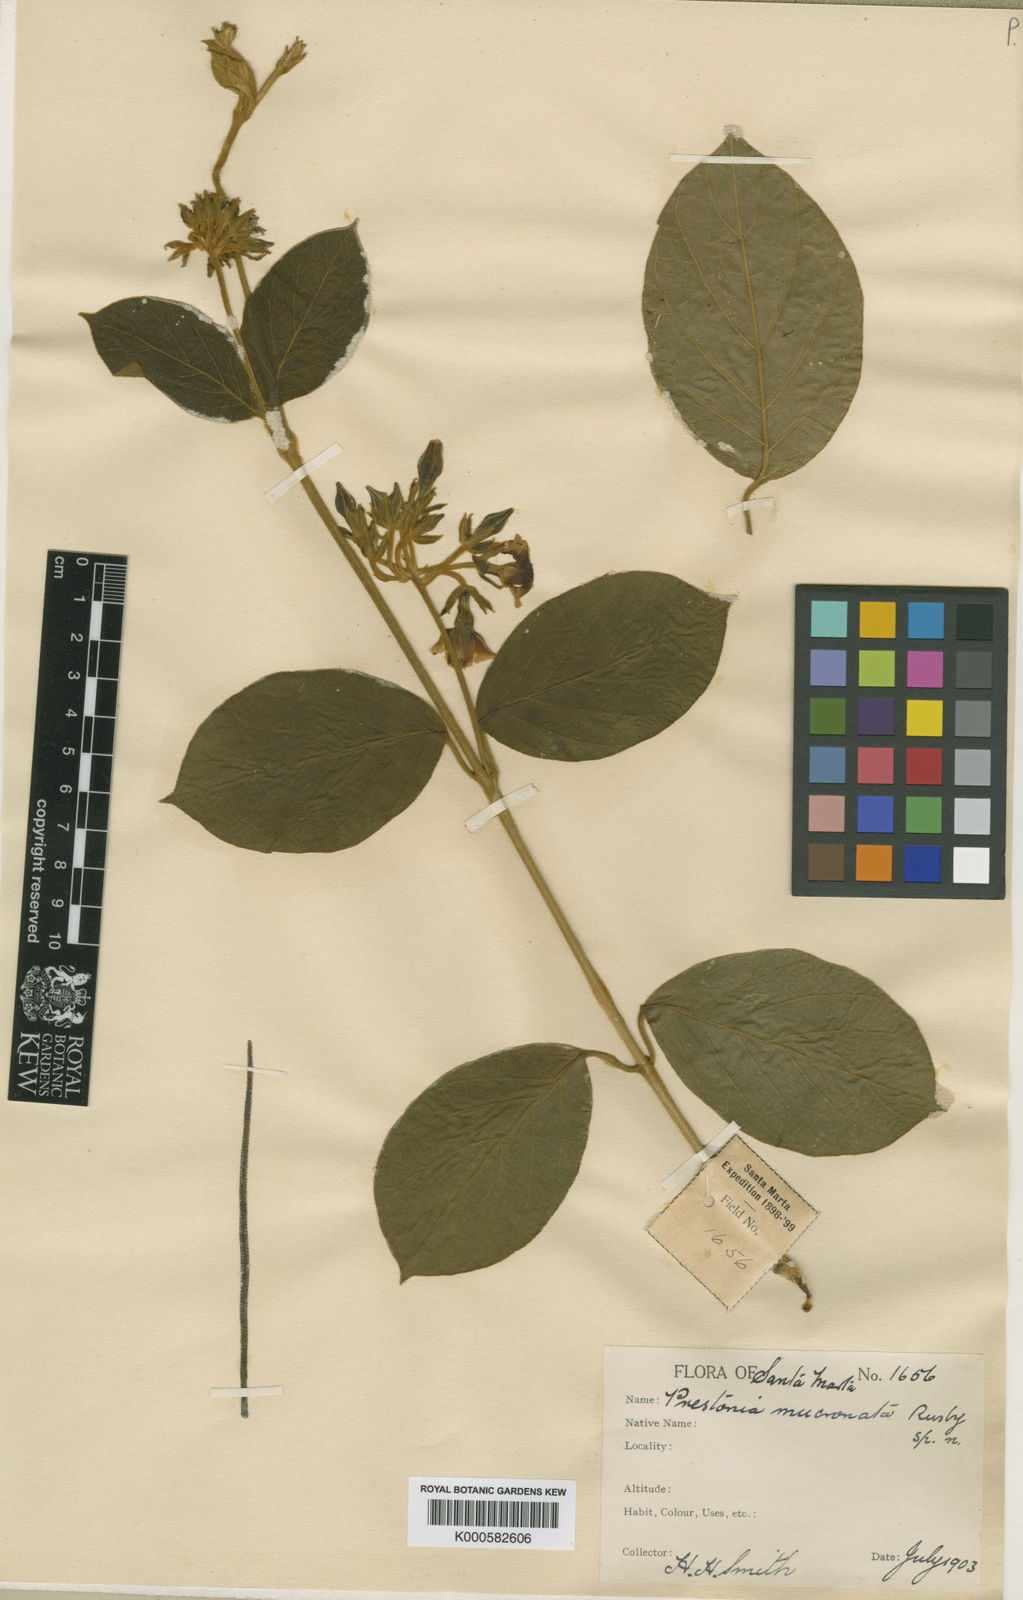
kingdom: Plantae
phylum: Tracheophyta
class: Magnoliopsida
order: Gentianales
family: Apocynaceae
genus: Prestonia
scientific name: Prestonia parviflora
